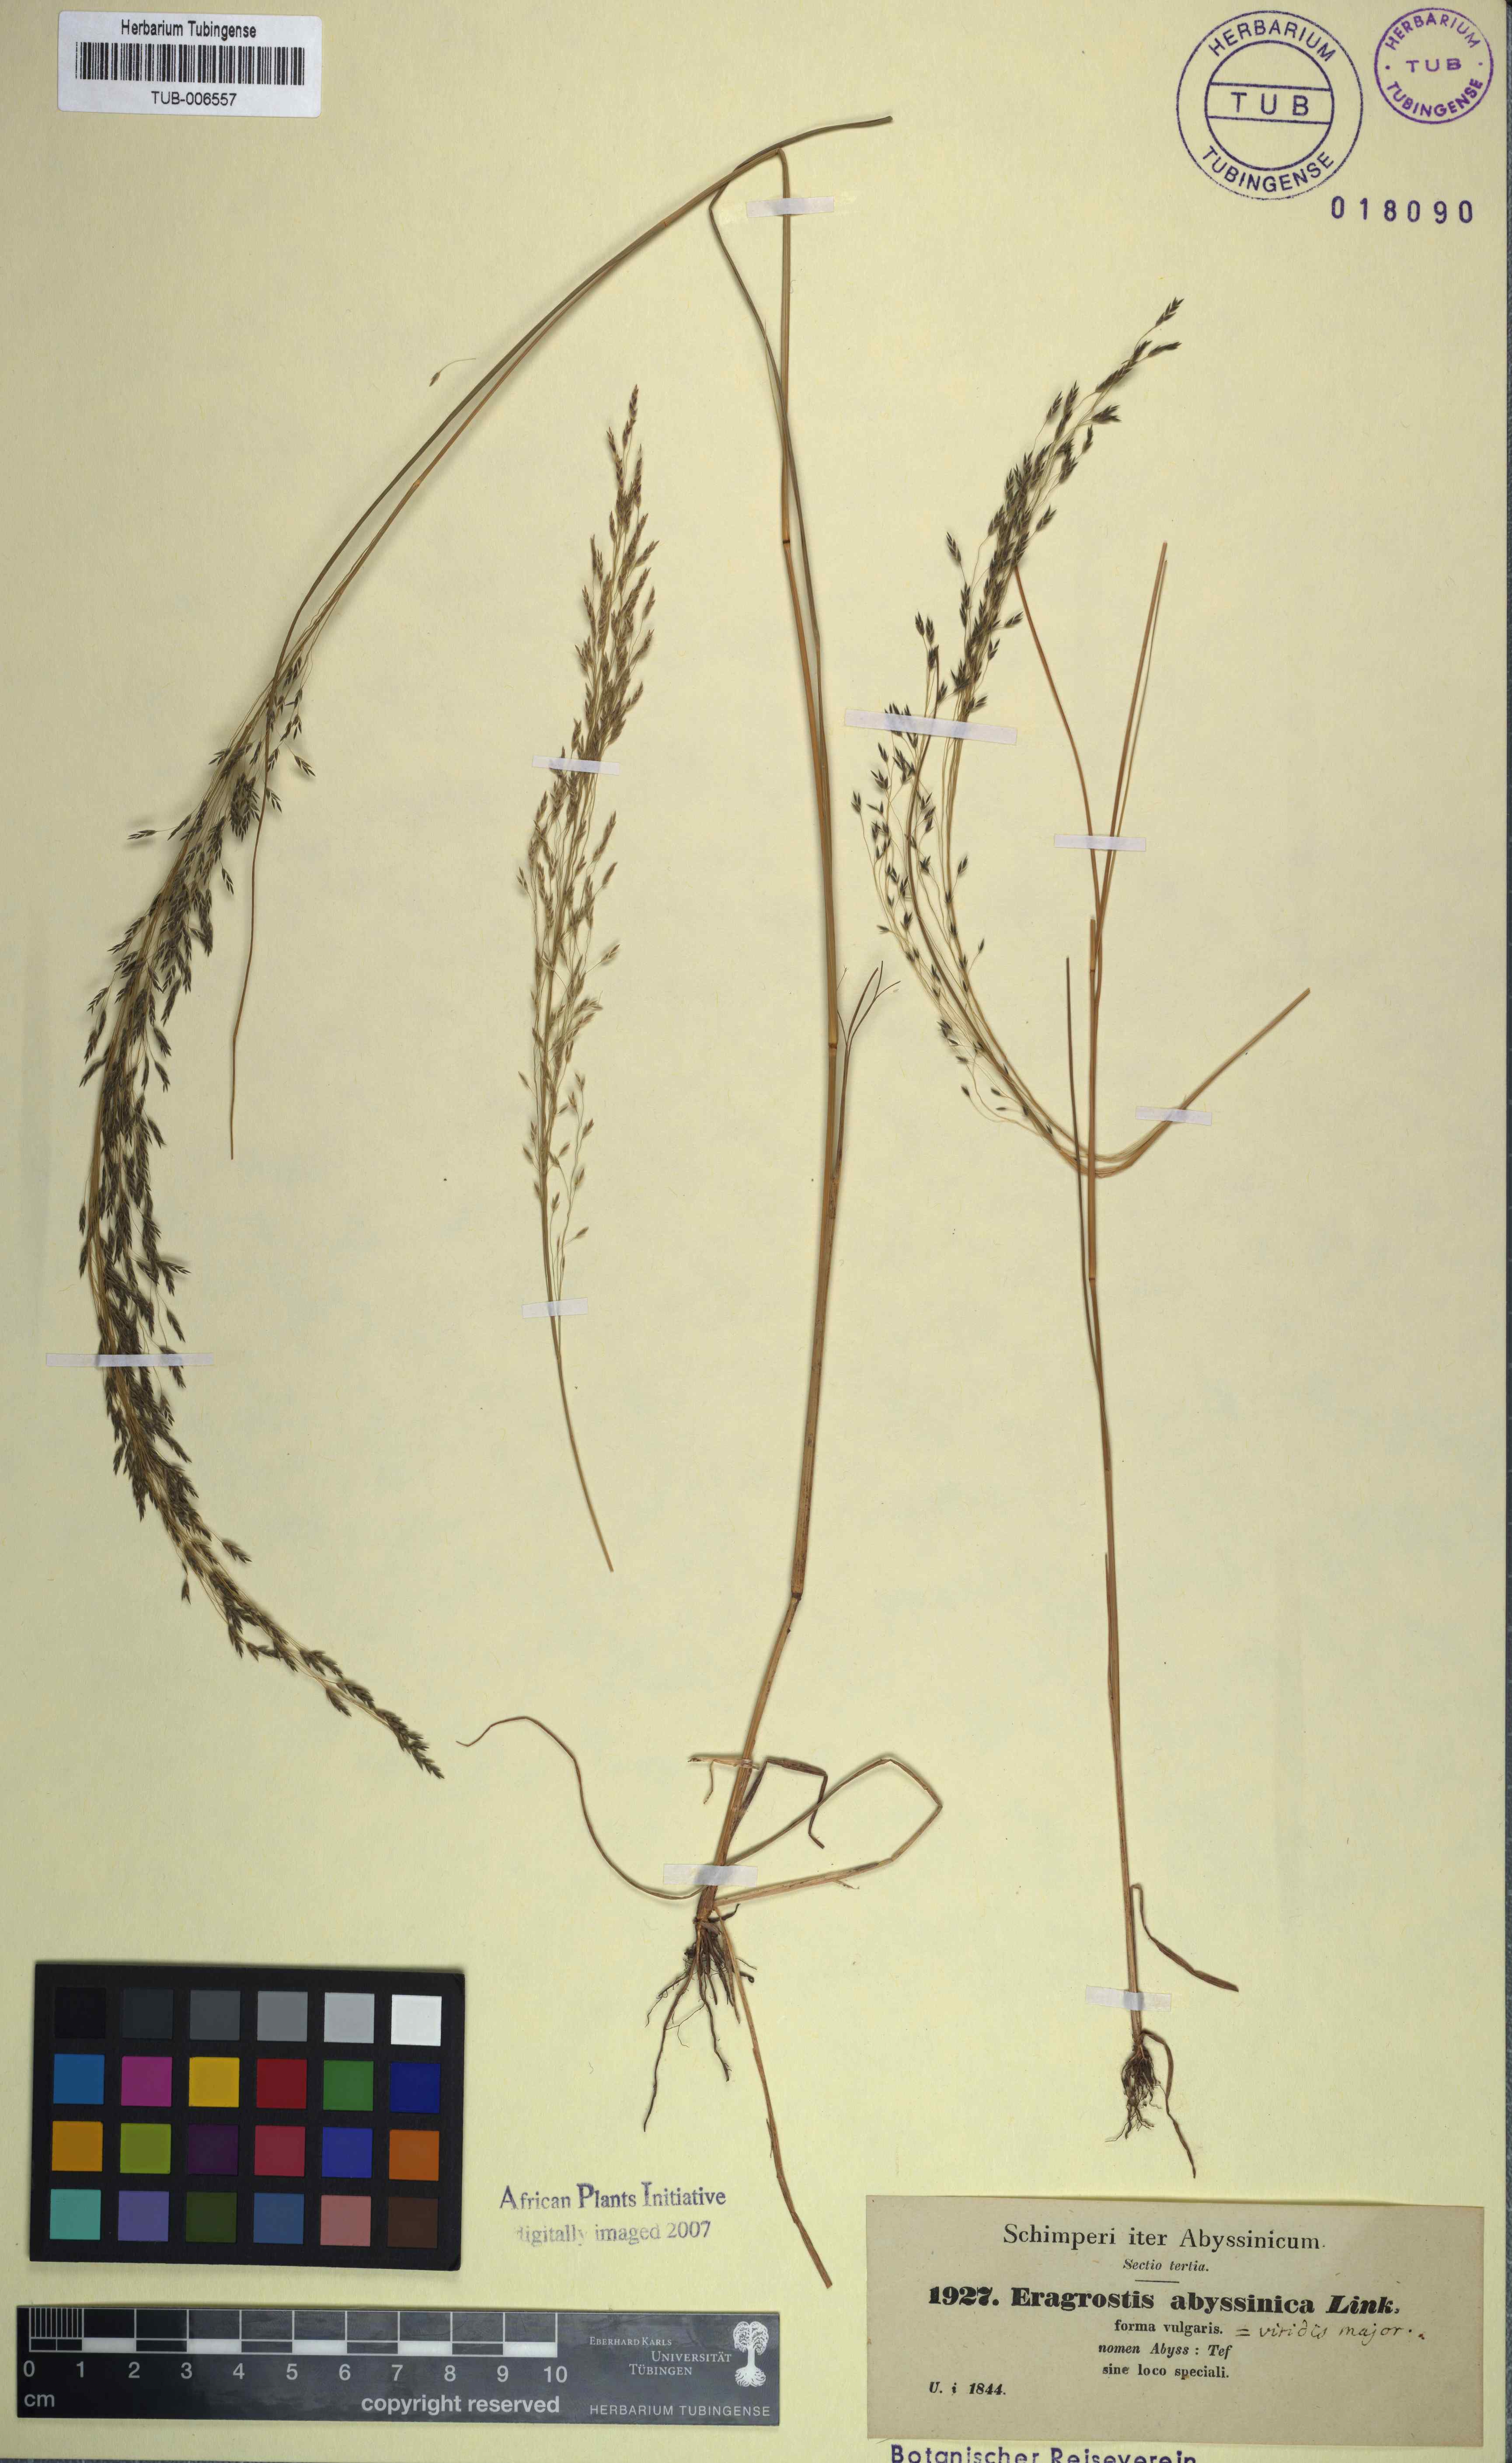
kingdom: Plantae
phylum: Tracheophyta
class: Liliopsida
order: Poales
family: Poaceae
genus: Eragrostis
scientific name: Eragrostis tef
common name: Teff
